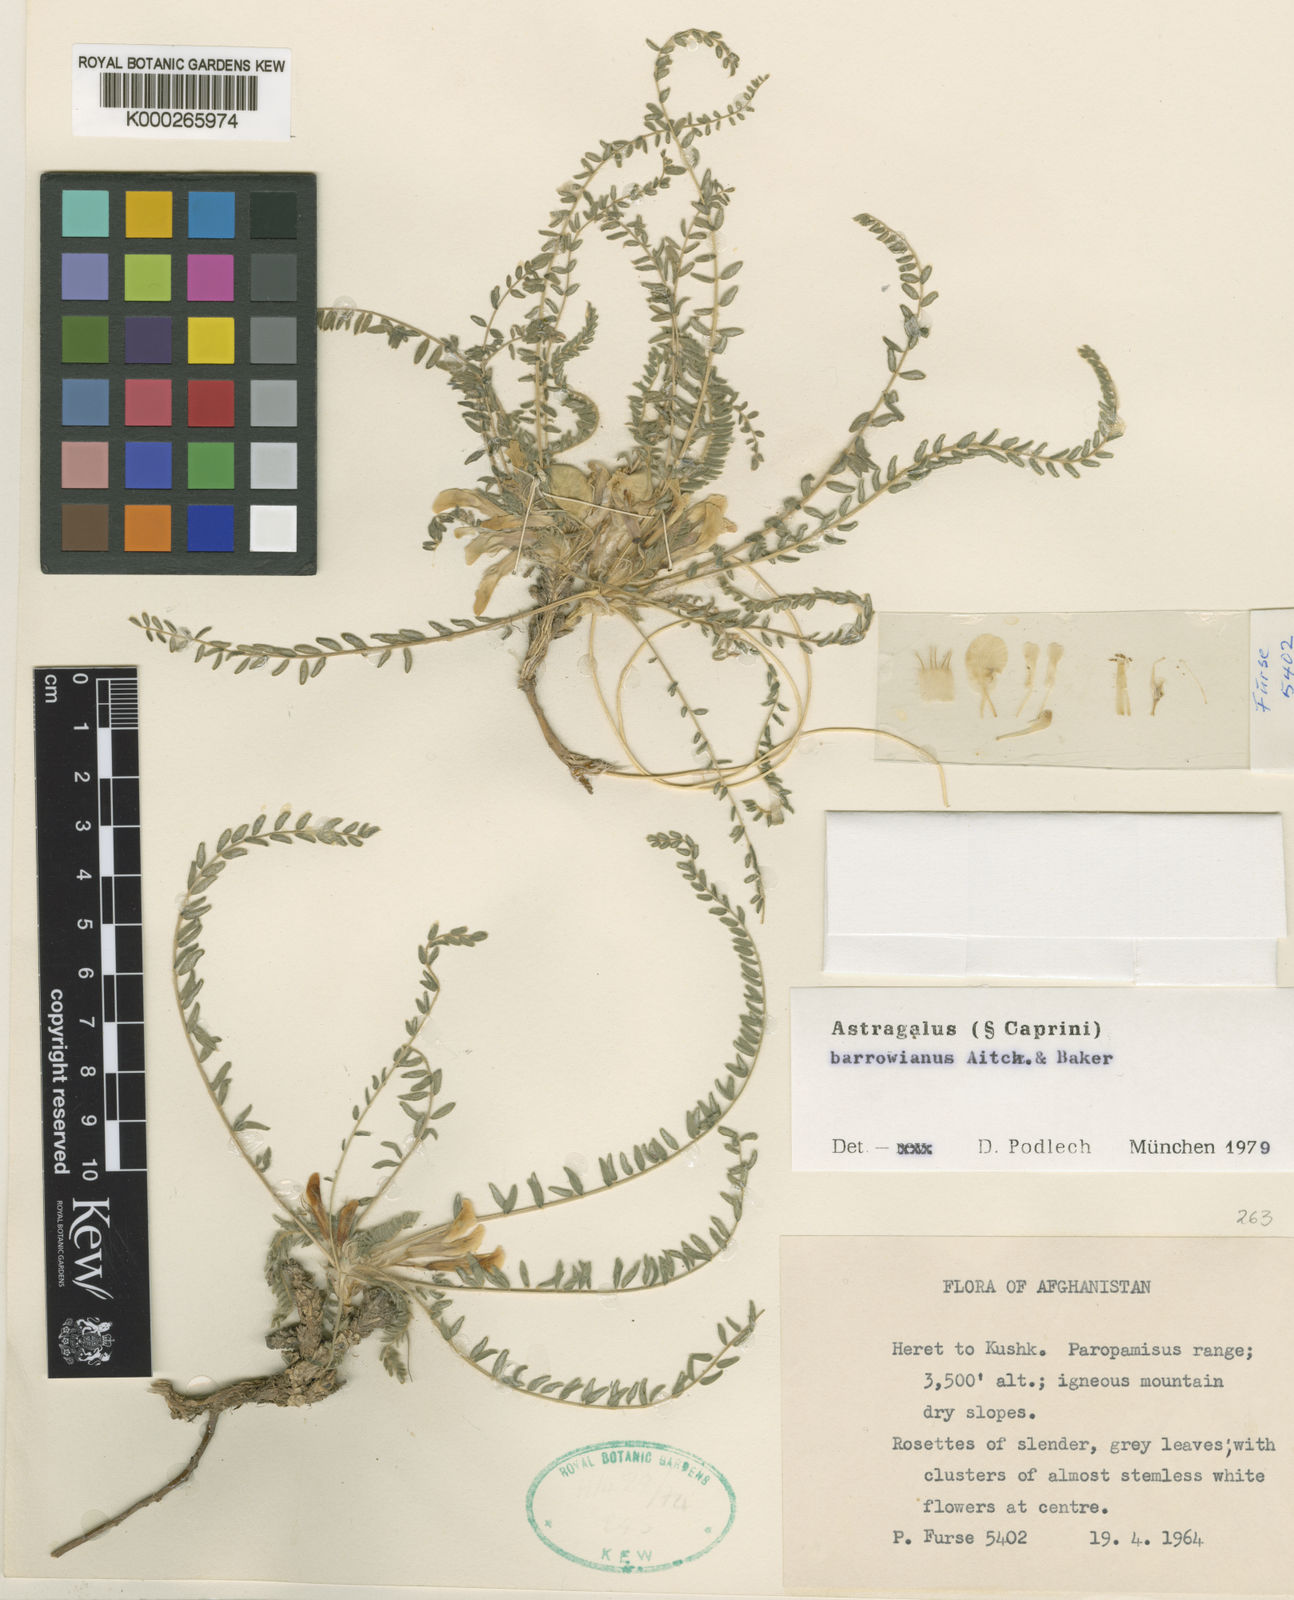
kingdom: Plantae
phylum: Tracheophyta
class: Magnoliopsida
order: Fabales
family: Fabaceae
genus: Astragalus
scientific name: Astragalus citrinus
